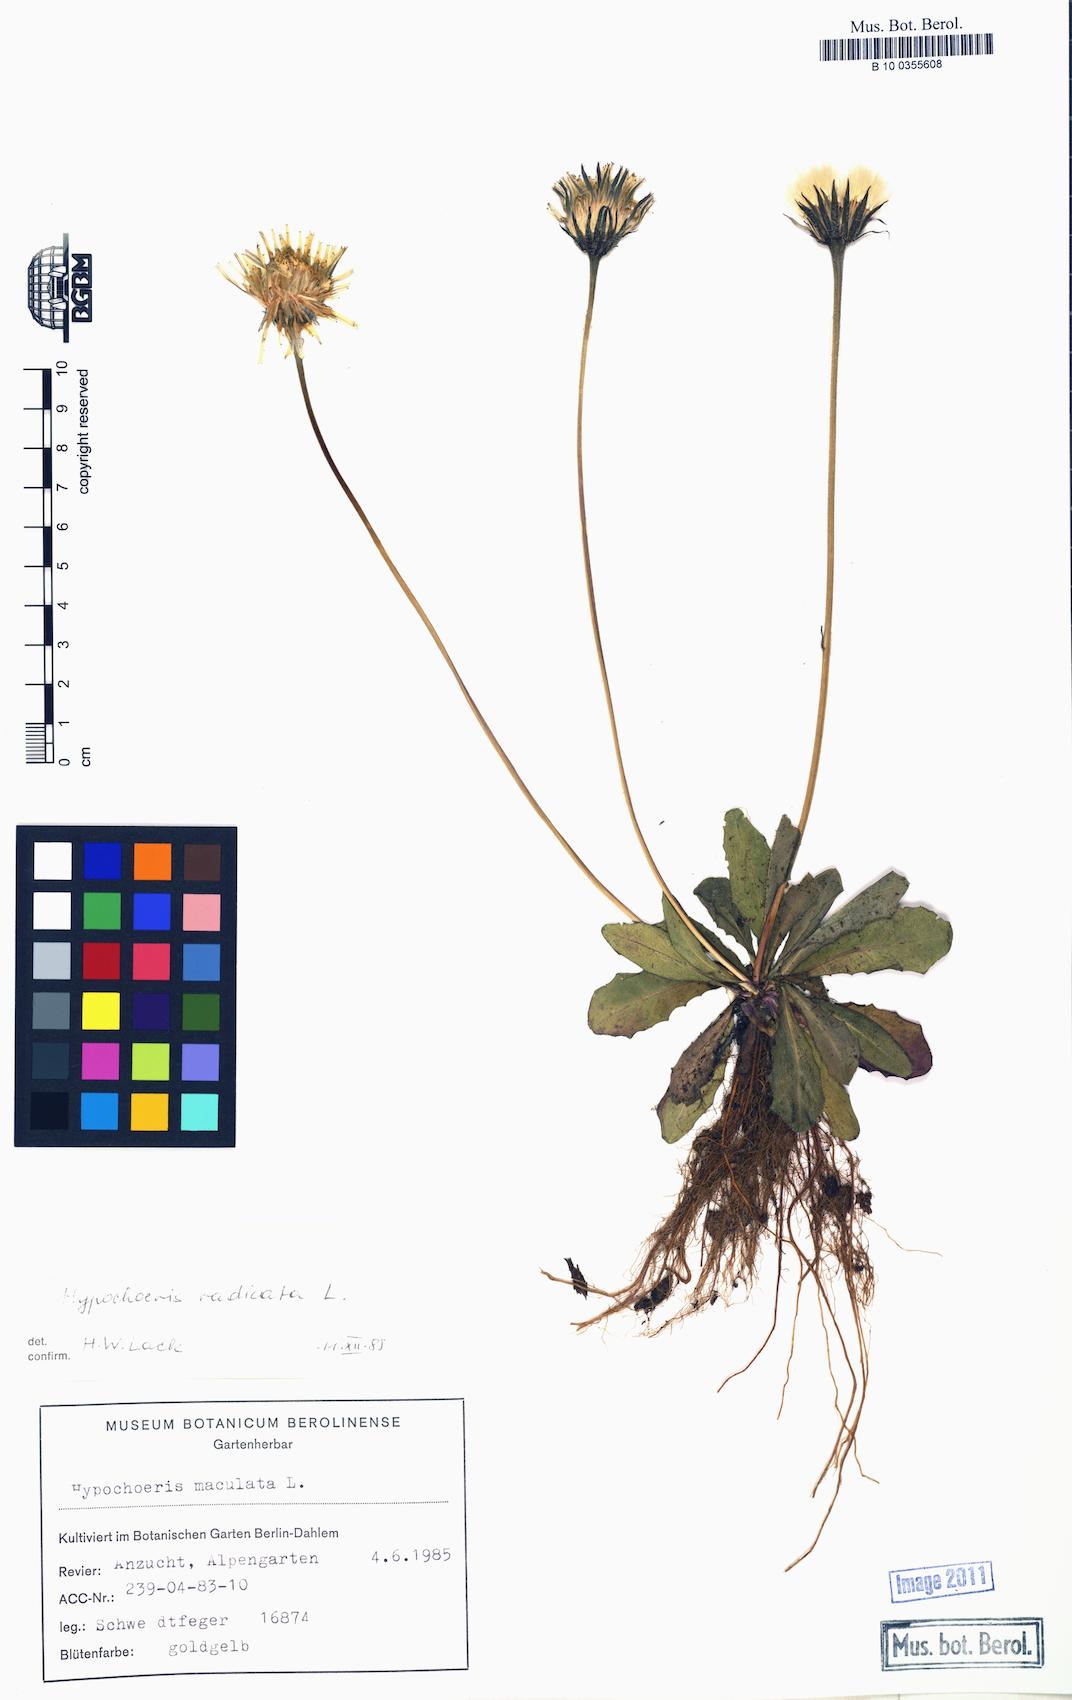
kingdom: Plantae
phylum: Tracheophyta
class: Magnoliopsida
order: Asterales
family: Asteraceae
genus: Hypochaeris
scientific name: Hypochaeris radicata
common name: Flatweed
